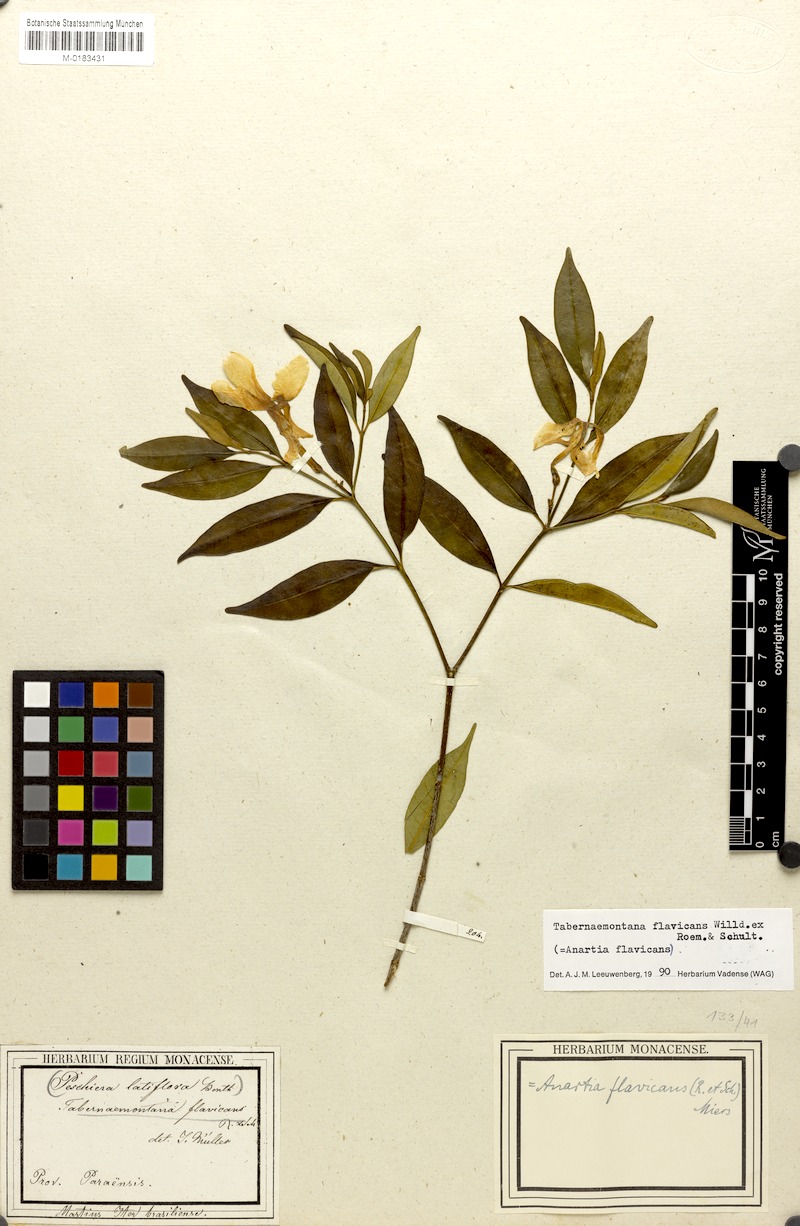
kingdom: Plantae
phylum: Tracheophyta
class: Magnoliopsida
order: Gentianales
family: Apocynaceae
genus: Tabernaemontana
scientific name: Tabernaemontana flavicans
